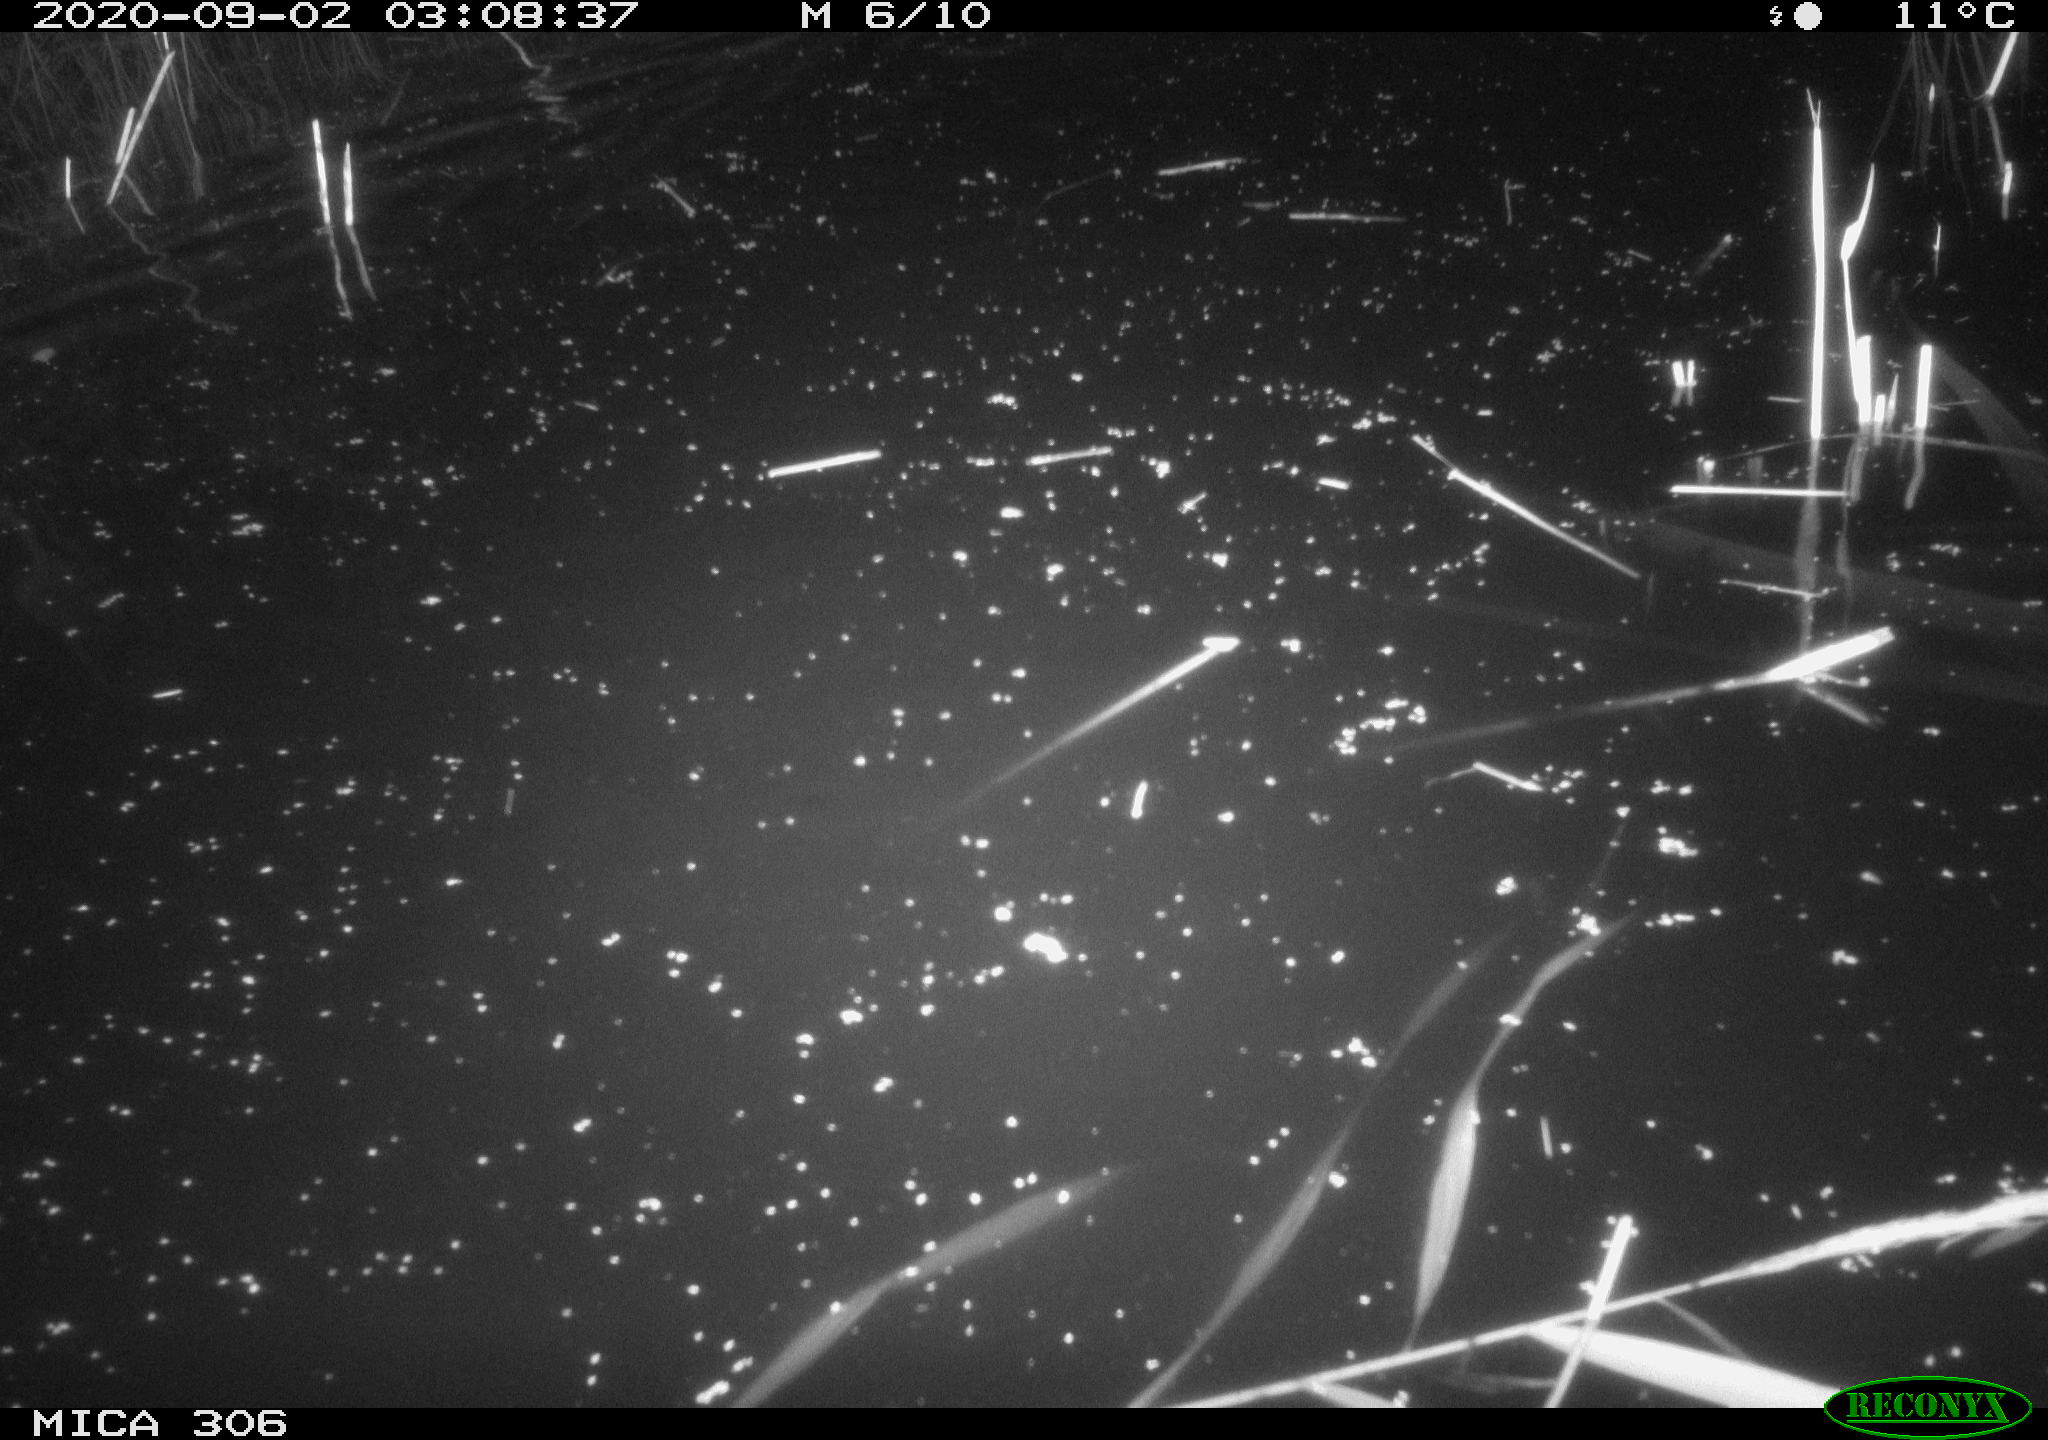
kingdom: Animalia
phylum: Chordata
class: Mammalia
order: Rodentia
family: Cricetidae
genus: Ondatra
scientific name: Ondatra zibethicus
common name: Muskrat
